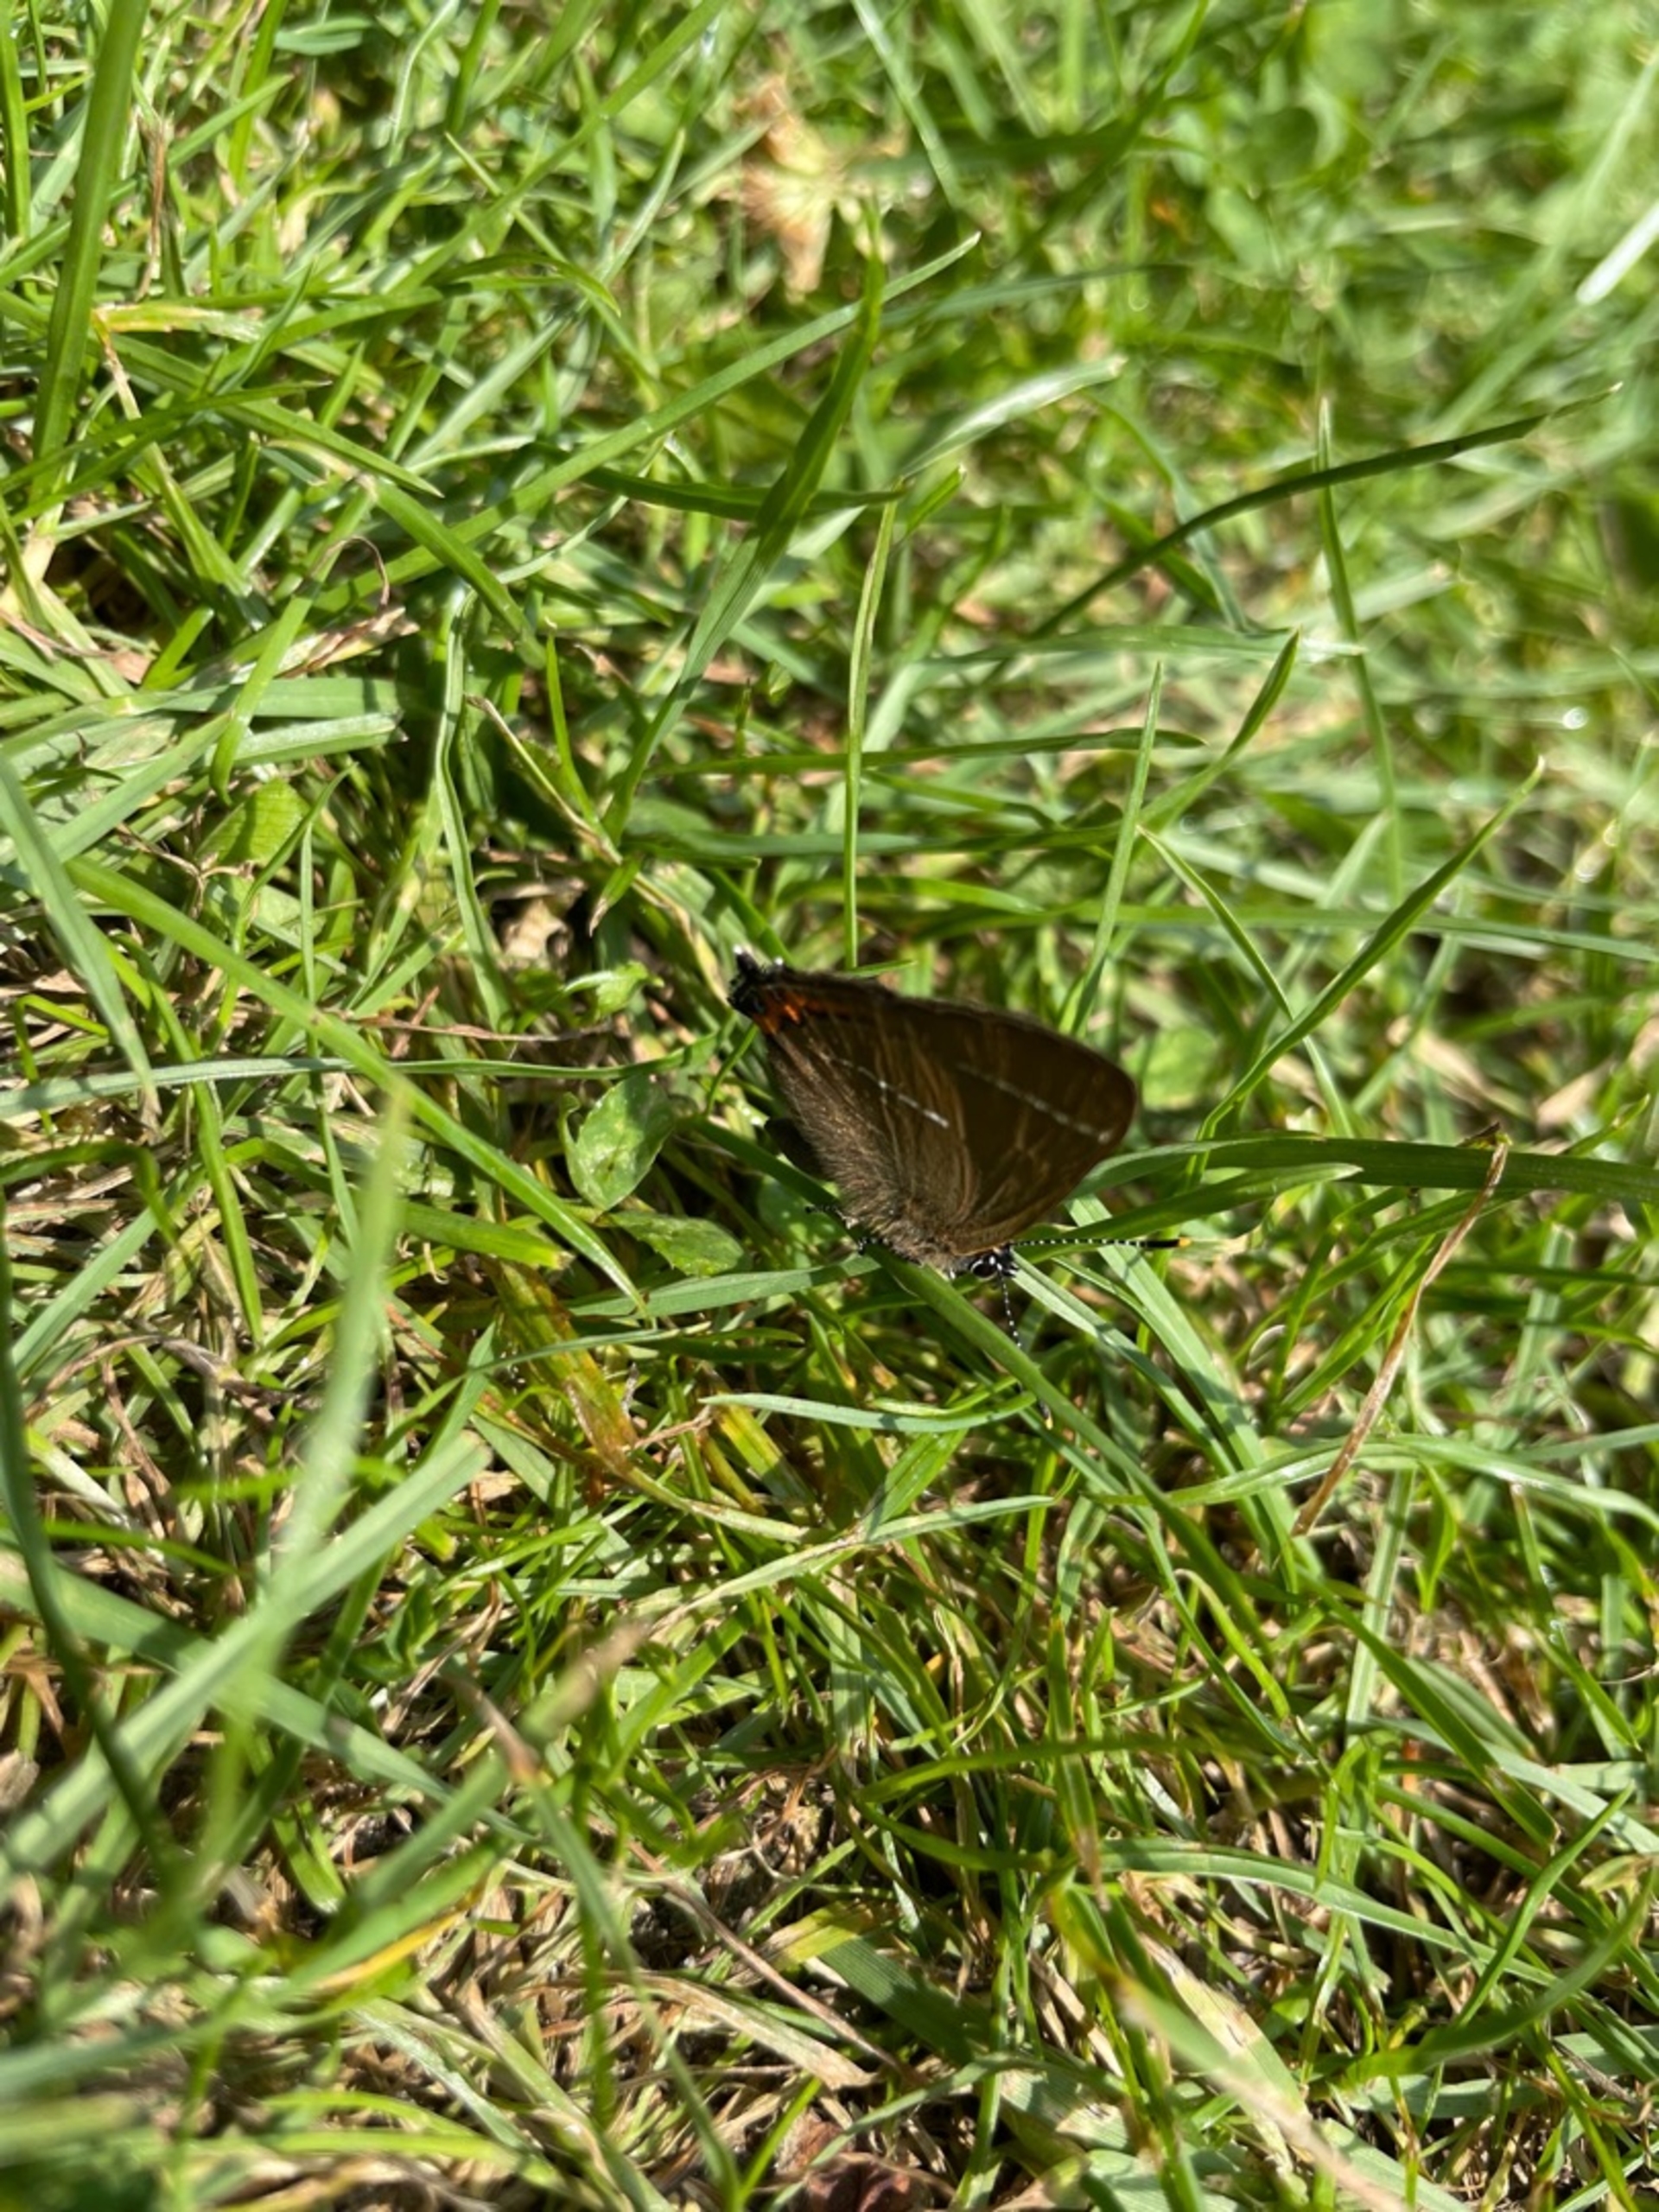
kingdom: Animalia
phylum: Arthropoda
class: Insecta
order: Lepidoptera
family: Lycaenidae
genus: Satyrium
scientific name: Satyrium w-album
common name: Det hvide W
